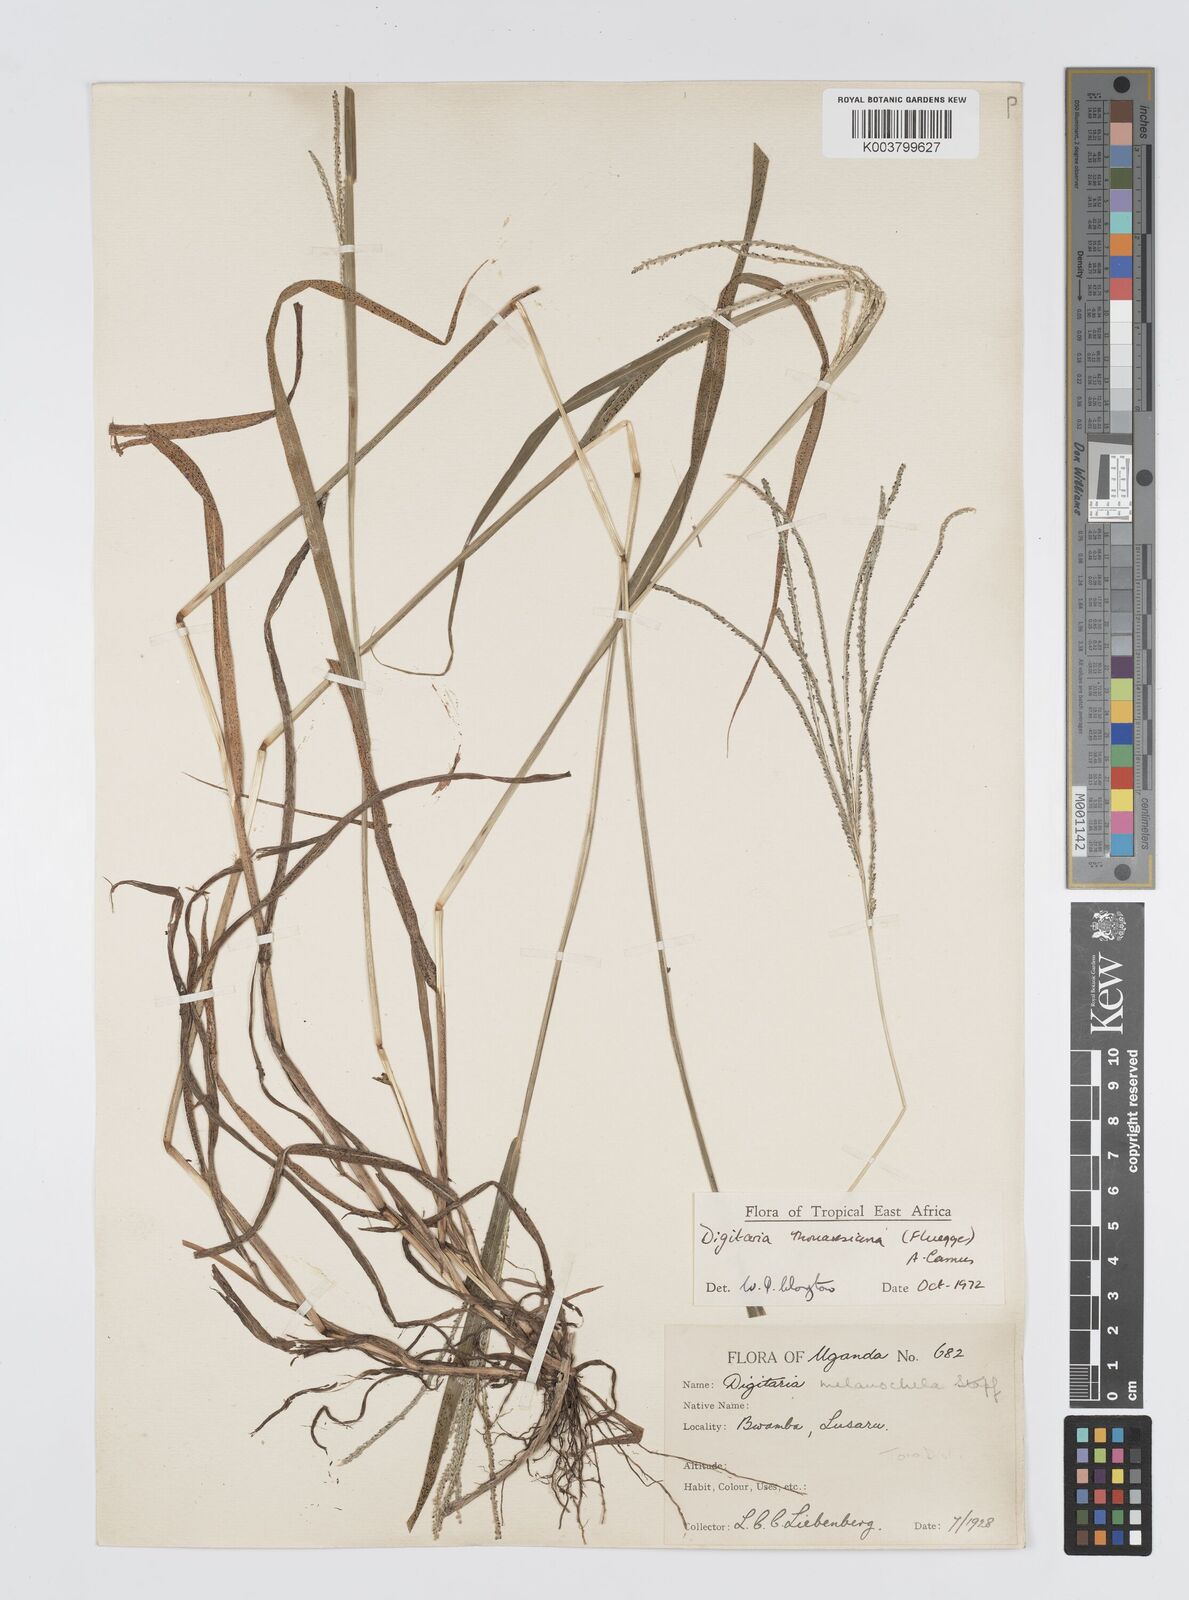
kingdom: Plantae
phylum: Tracheophyta
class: Liliopsida
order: Poales
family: Poaceae
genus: Digitaria
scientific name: Digitaria thouarsiana
